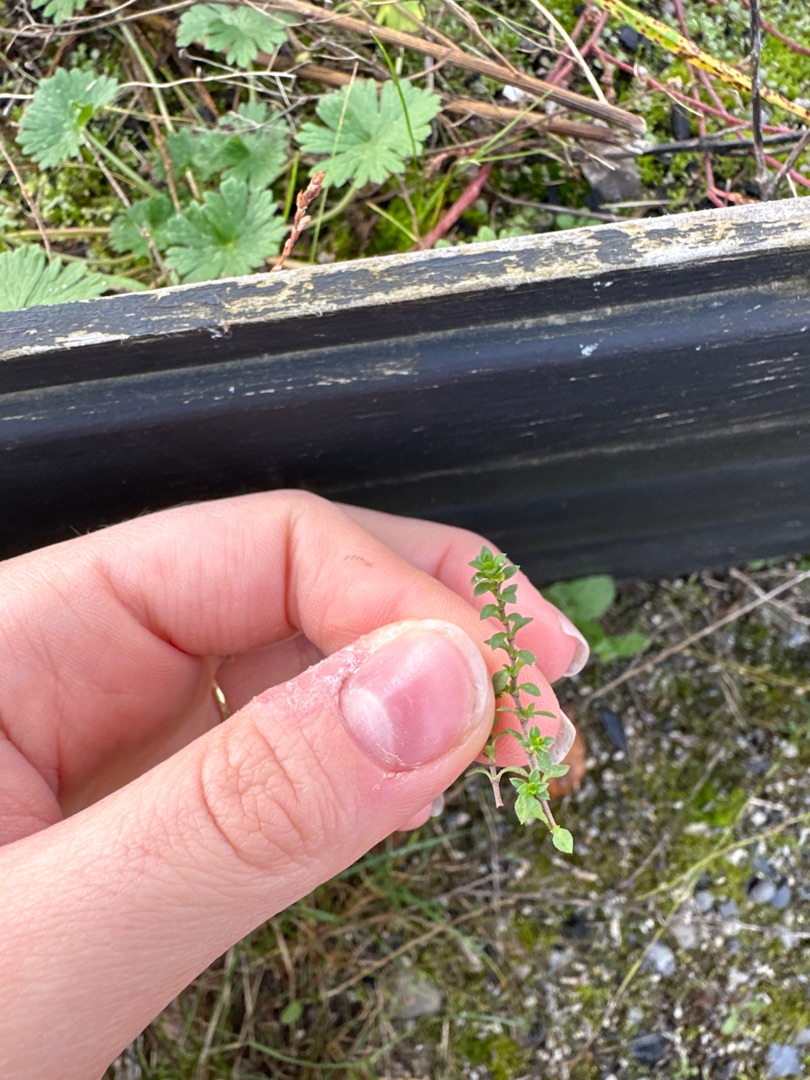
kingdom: Plantae
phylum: Tracheophyta
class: Magnoliopsida
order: Caryophyllales
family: Caryophyllaceae
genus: Arenaria
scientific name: Arenaria serpyllifolia
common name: Almindelig markarve
